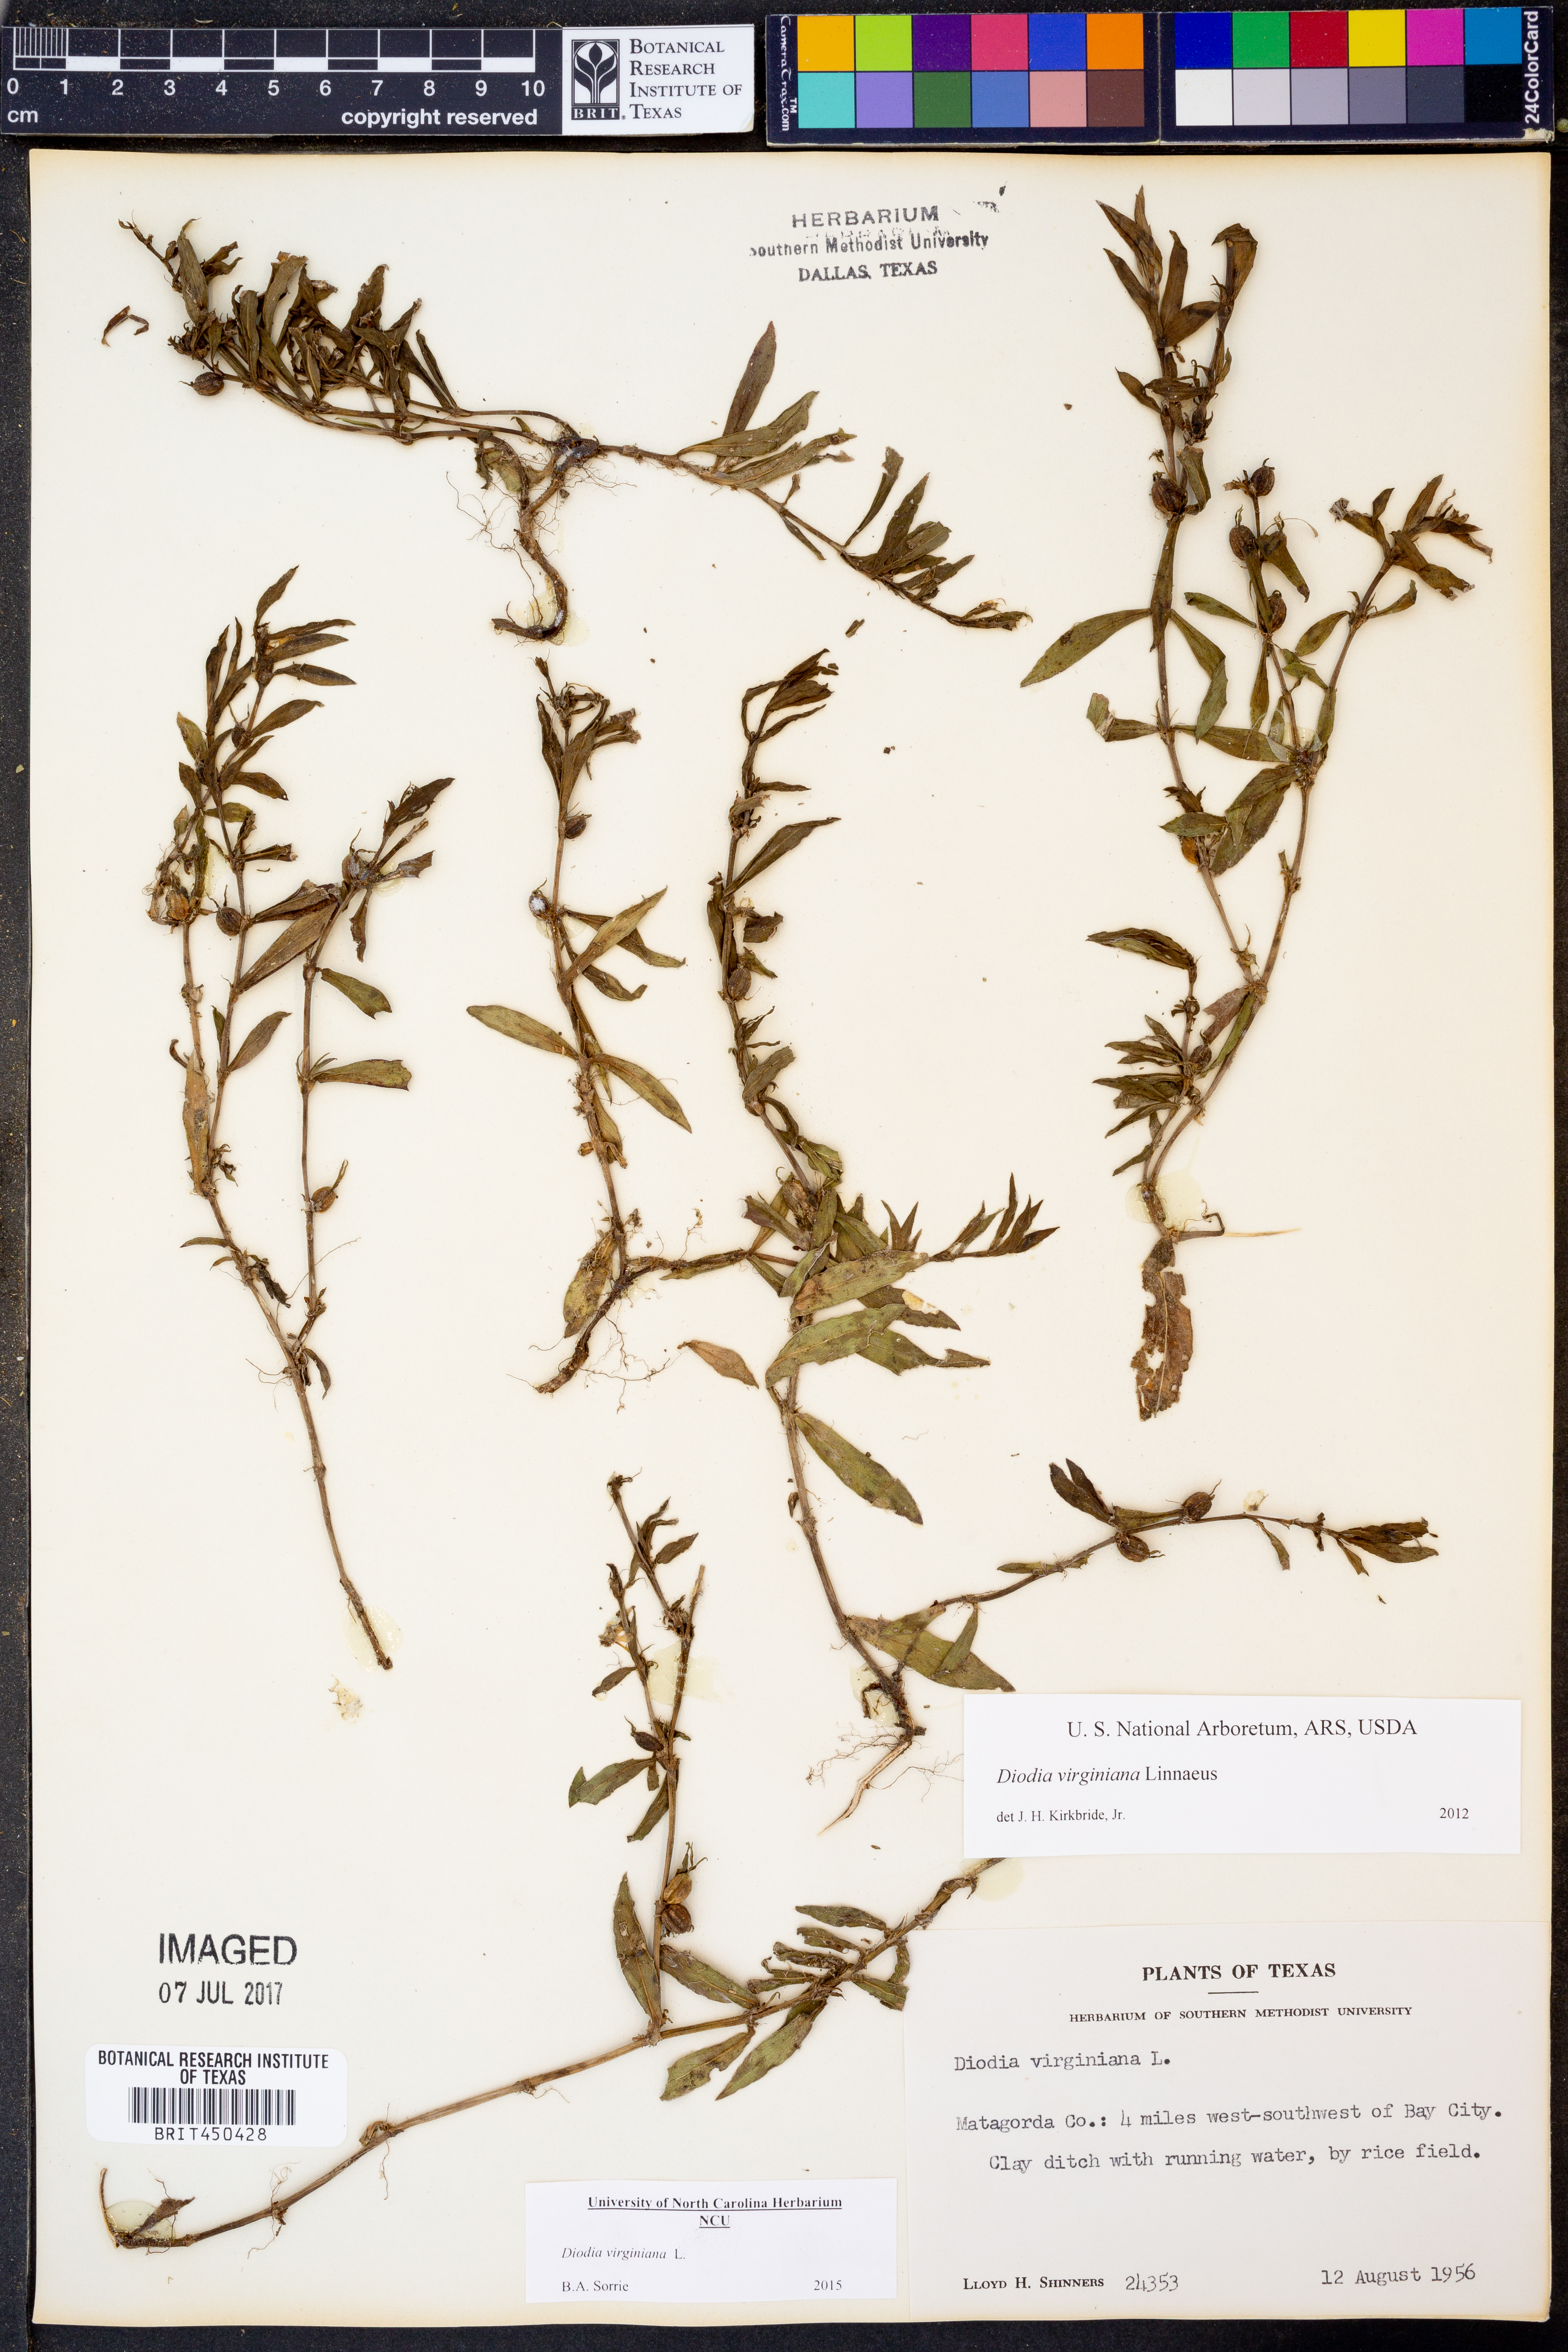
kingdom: Plantae
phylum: Tracheophyta
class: Magnoliopsida
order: Gentianales
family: Rubiaceae
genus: Diodia
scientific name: Diodia virginiana
